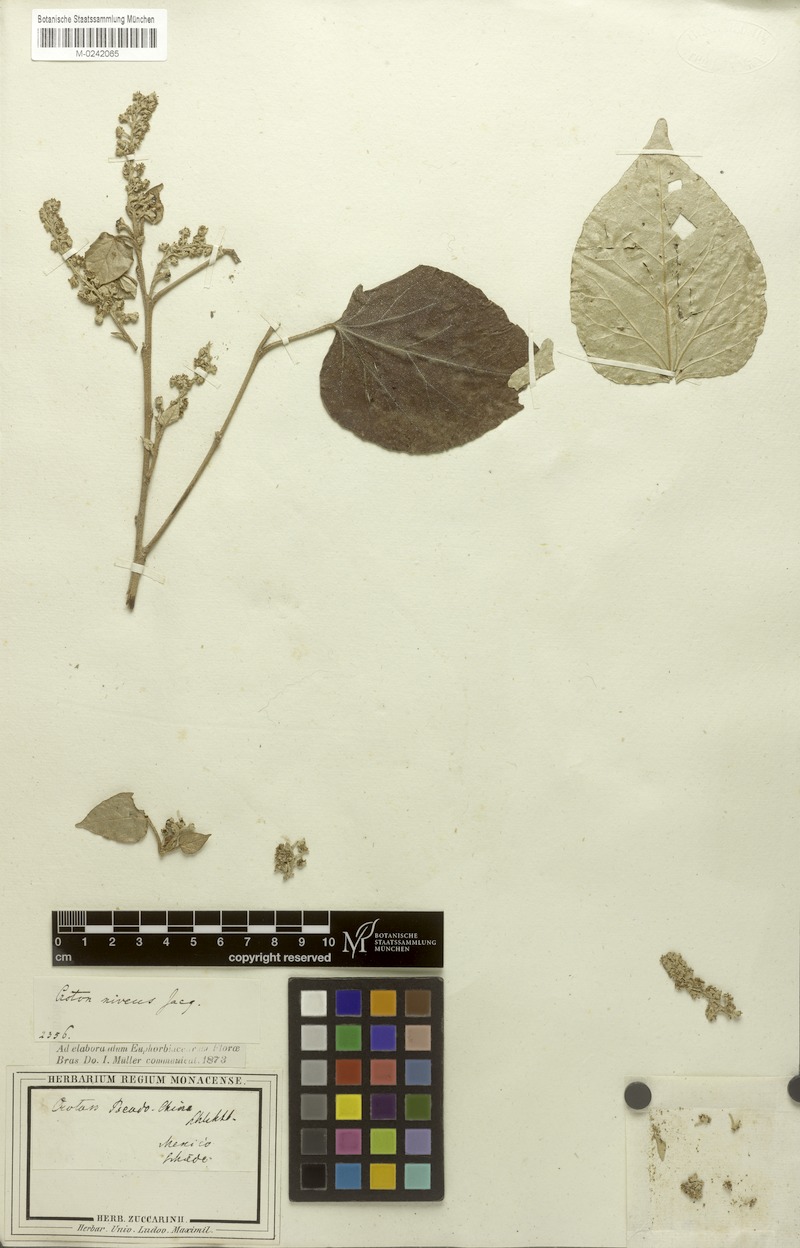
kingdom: Plantae
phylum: Tracheophyta
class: Magnoliopsida
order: Malpighiales
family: Euphorbiaceae
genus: Croton
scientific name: Croton niveus
